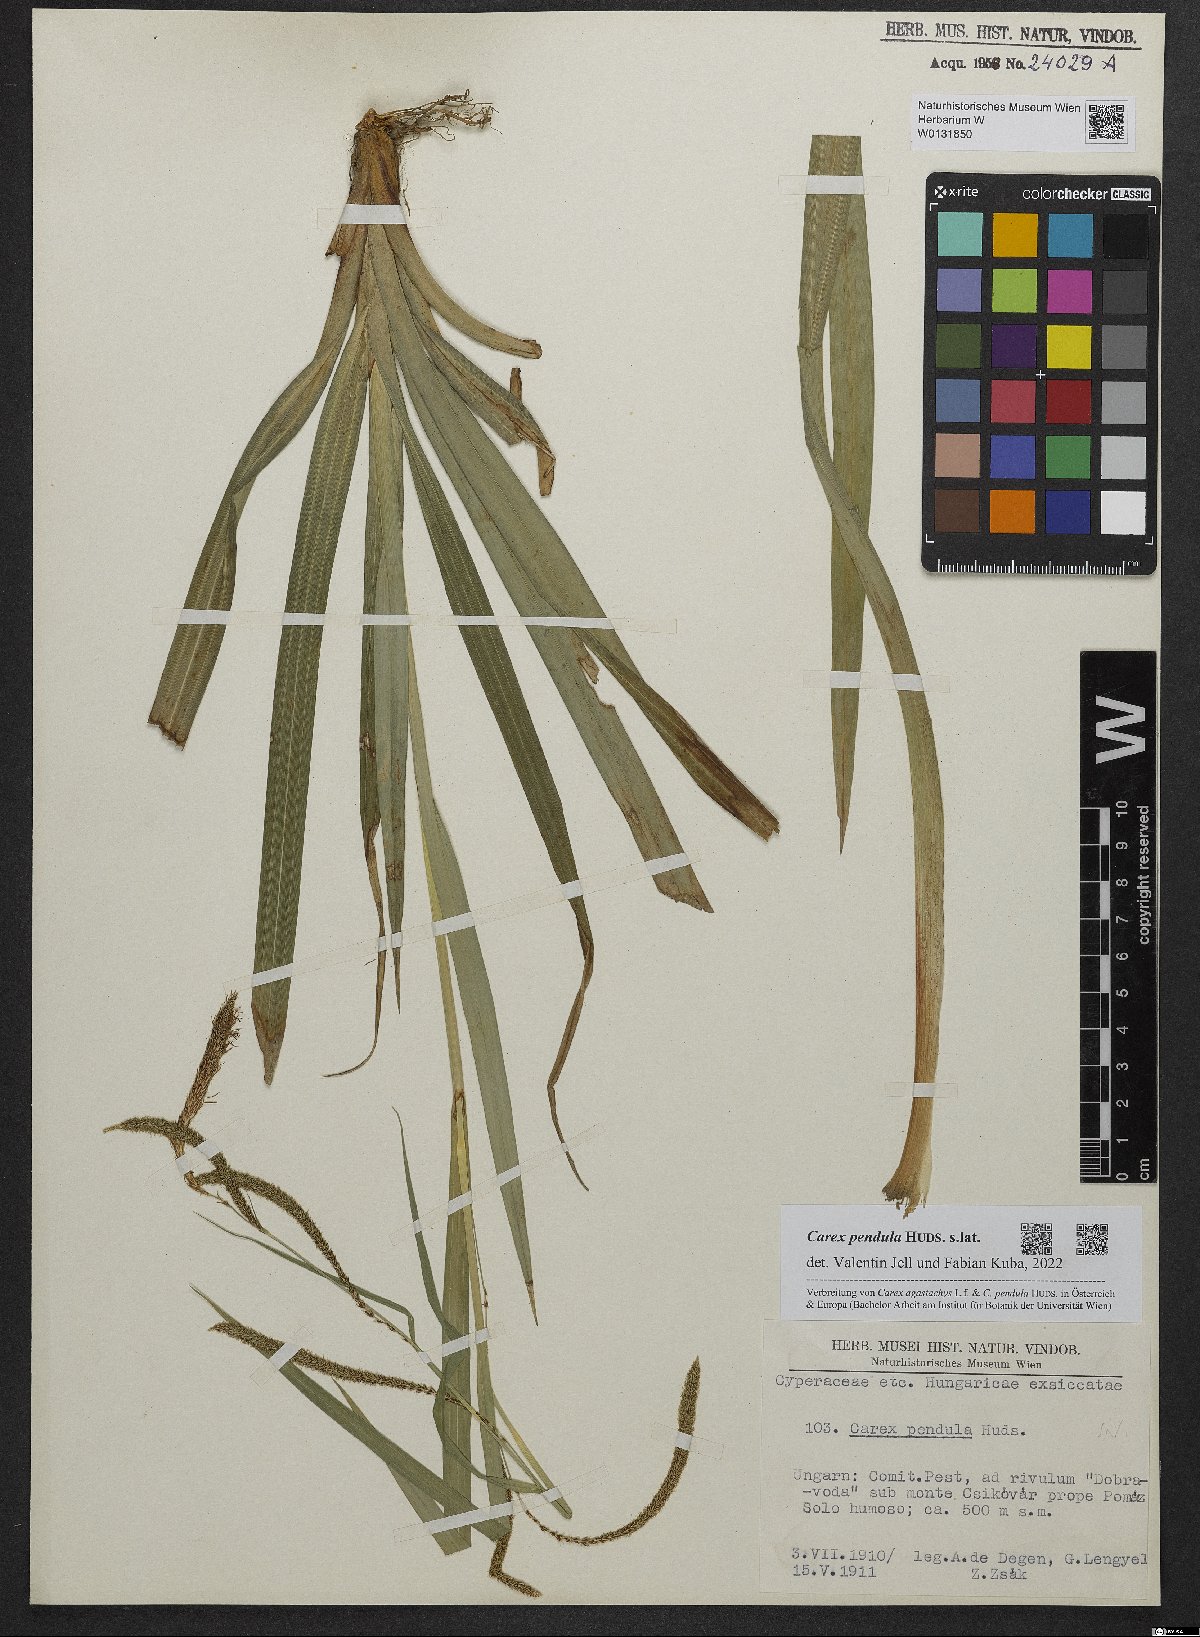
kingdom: Plantae
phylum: Tracheophyta
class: Liliopsida
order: Poales
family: Cyperaceae
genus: Carex
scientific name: Carex pendula
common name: Pendulous sedge
